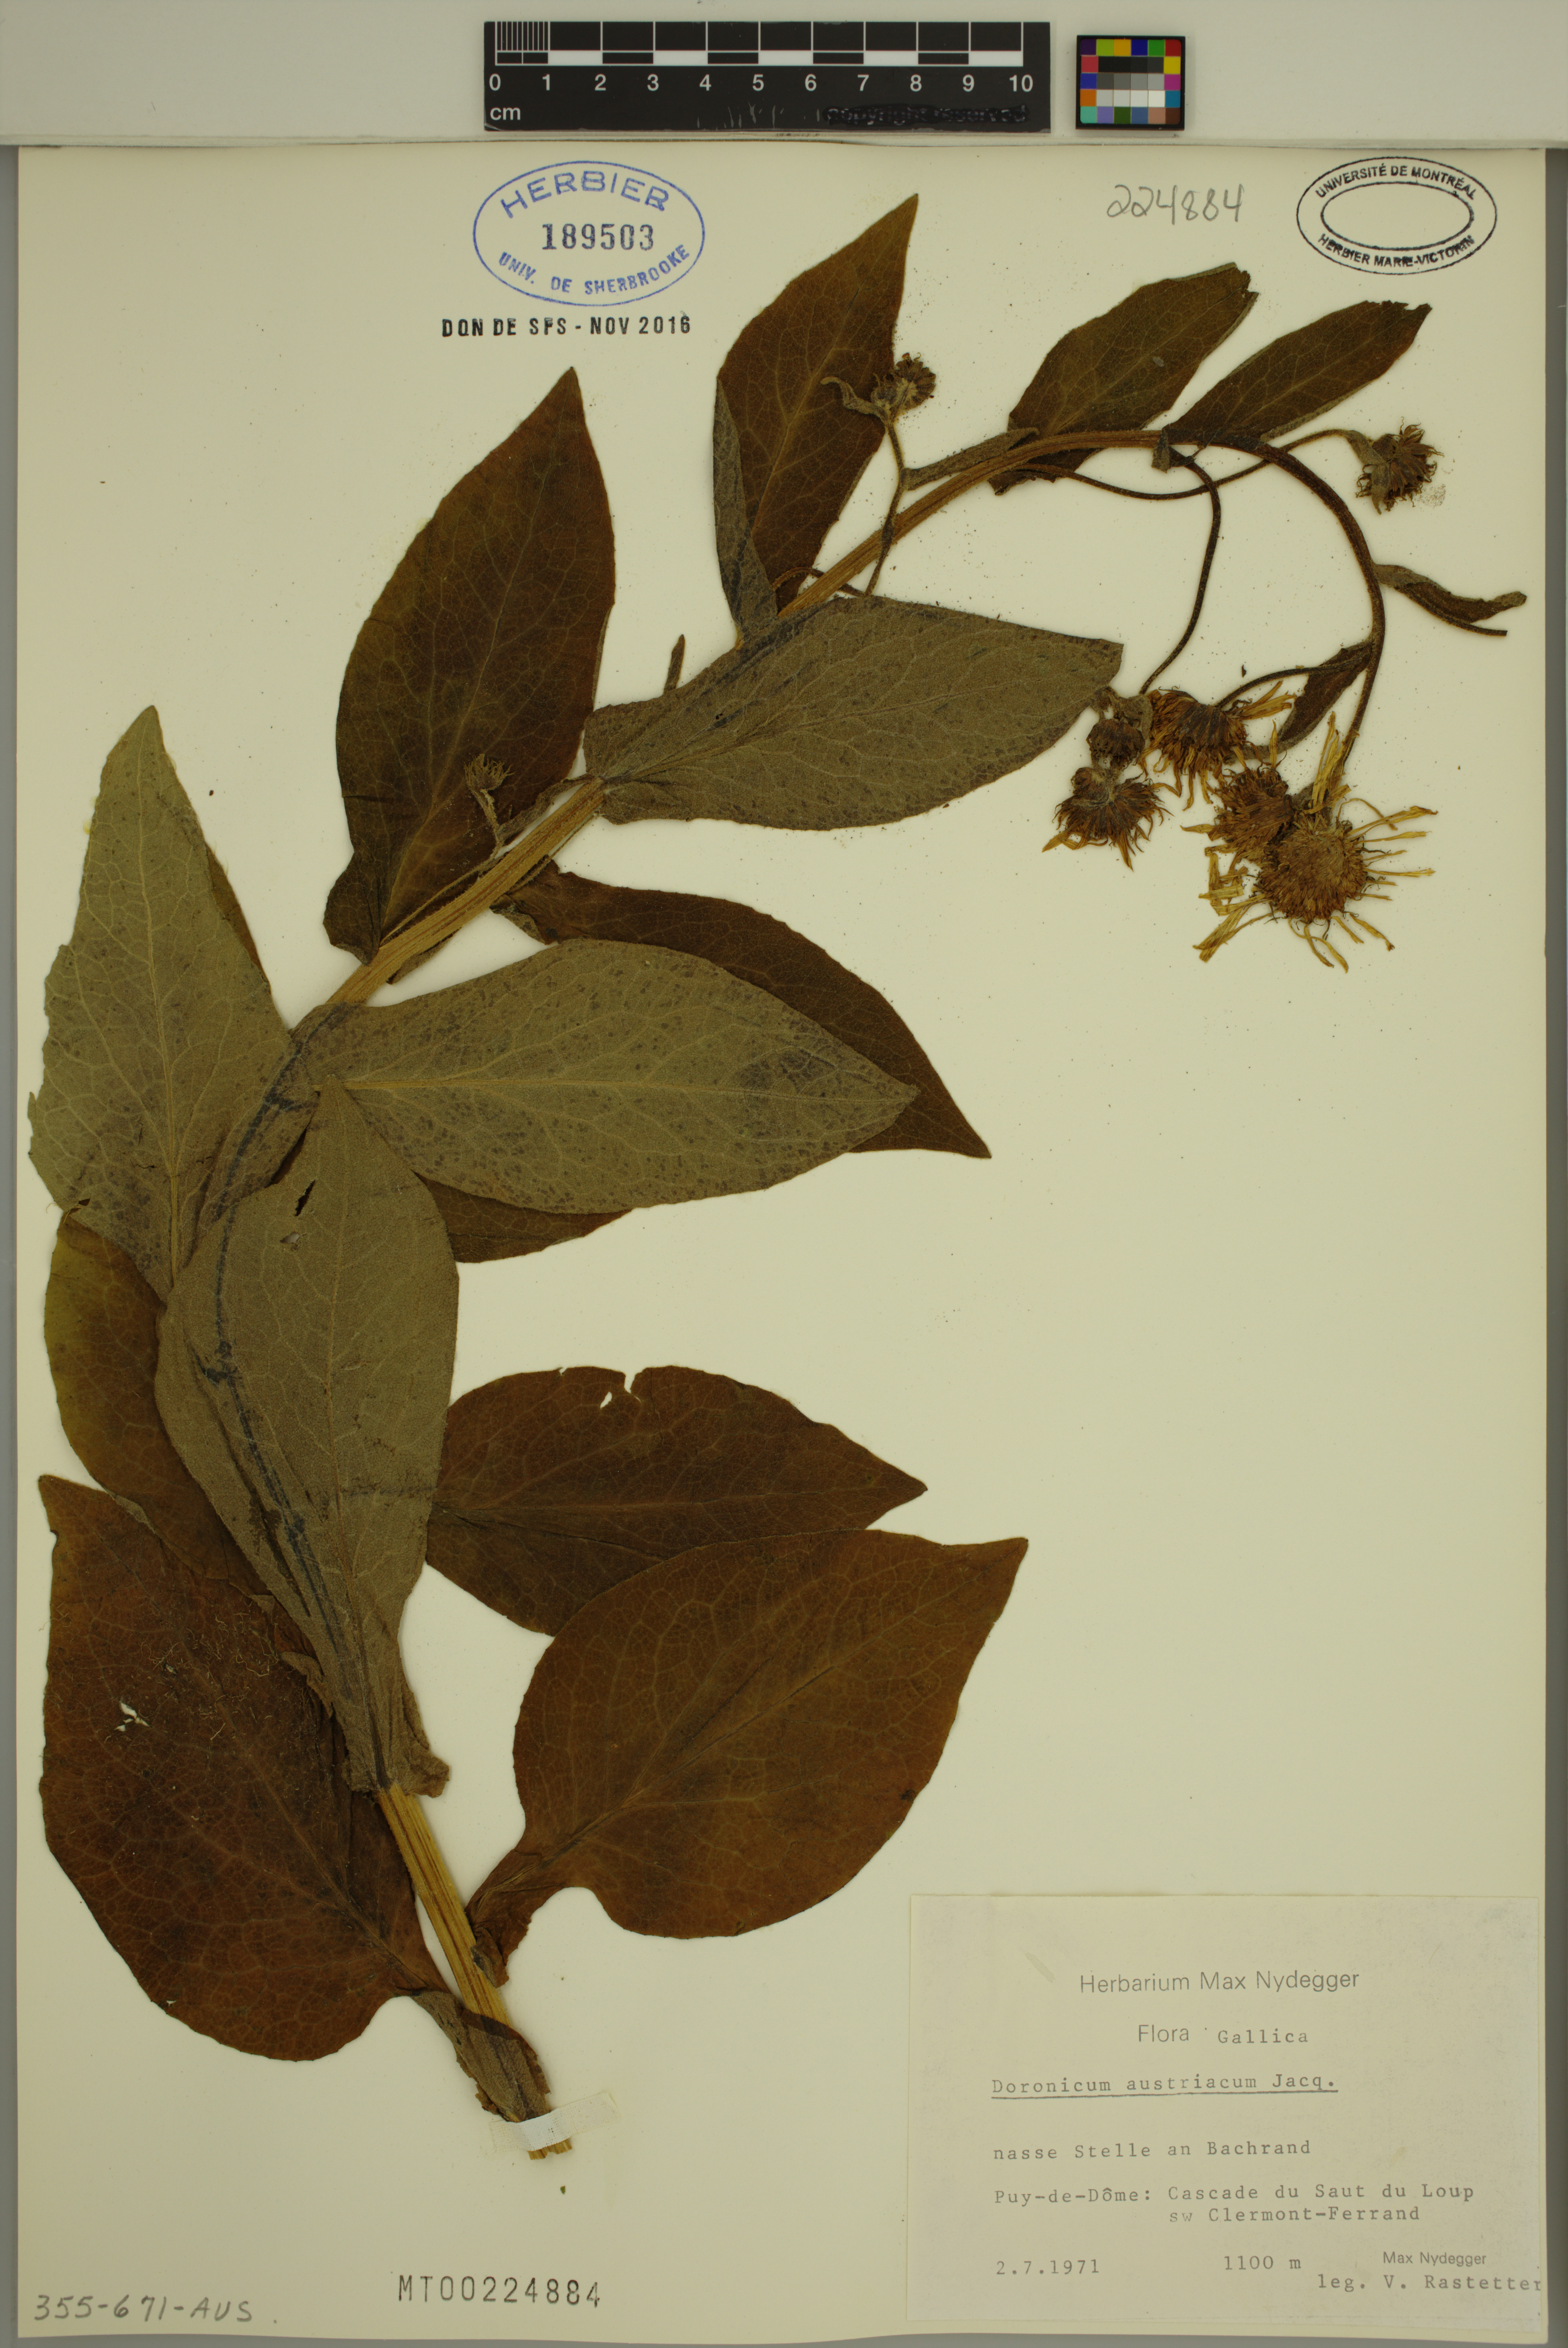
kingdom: Plantae
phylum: Tracheophyta
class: Magnoliopsida
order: Asterales
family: Asteraceae
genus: Doronicum
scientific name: Doronicum austriacum
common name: Austrian leopard's-bane
